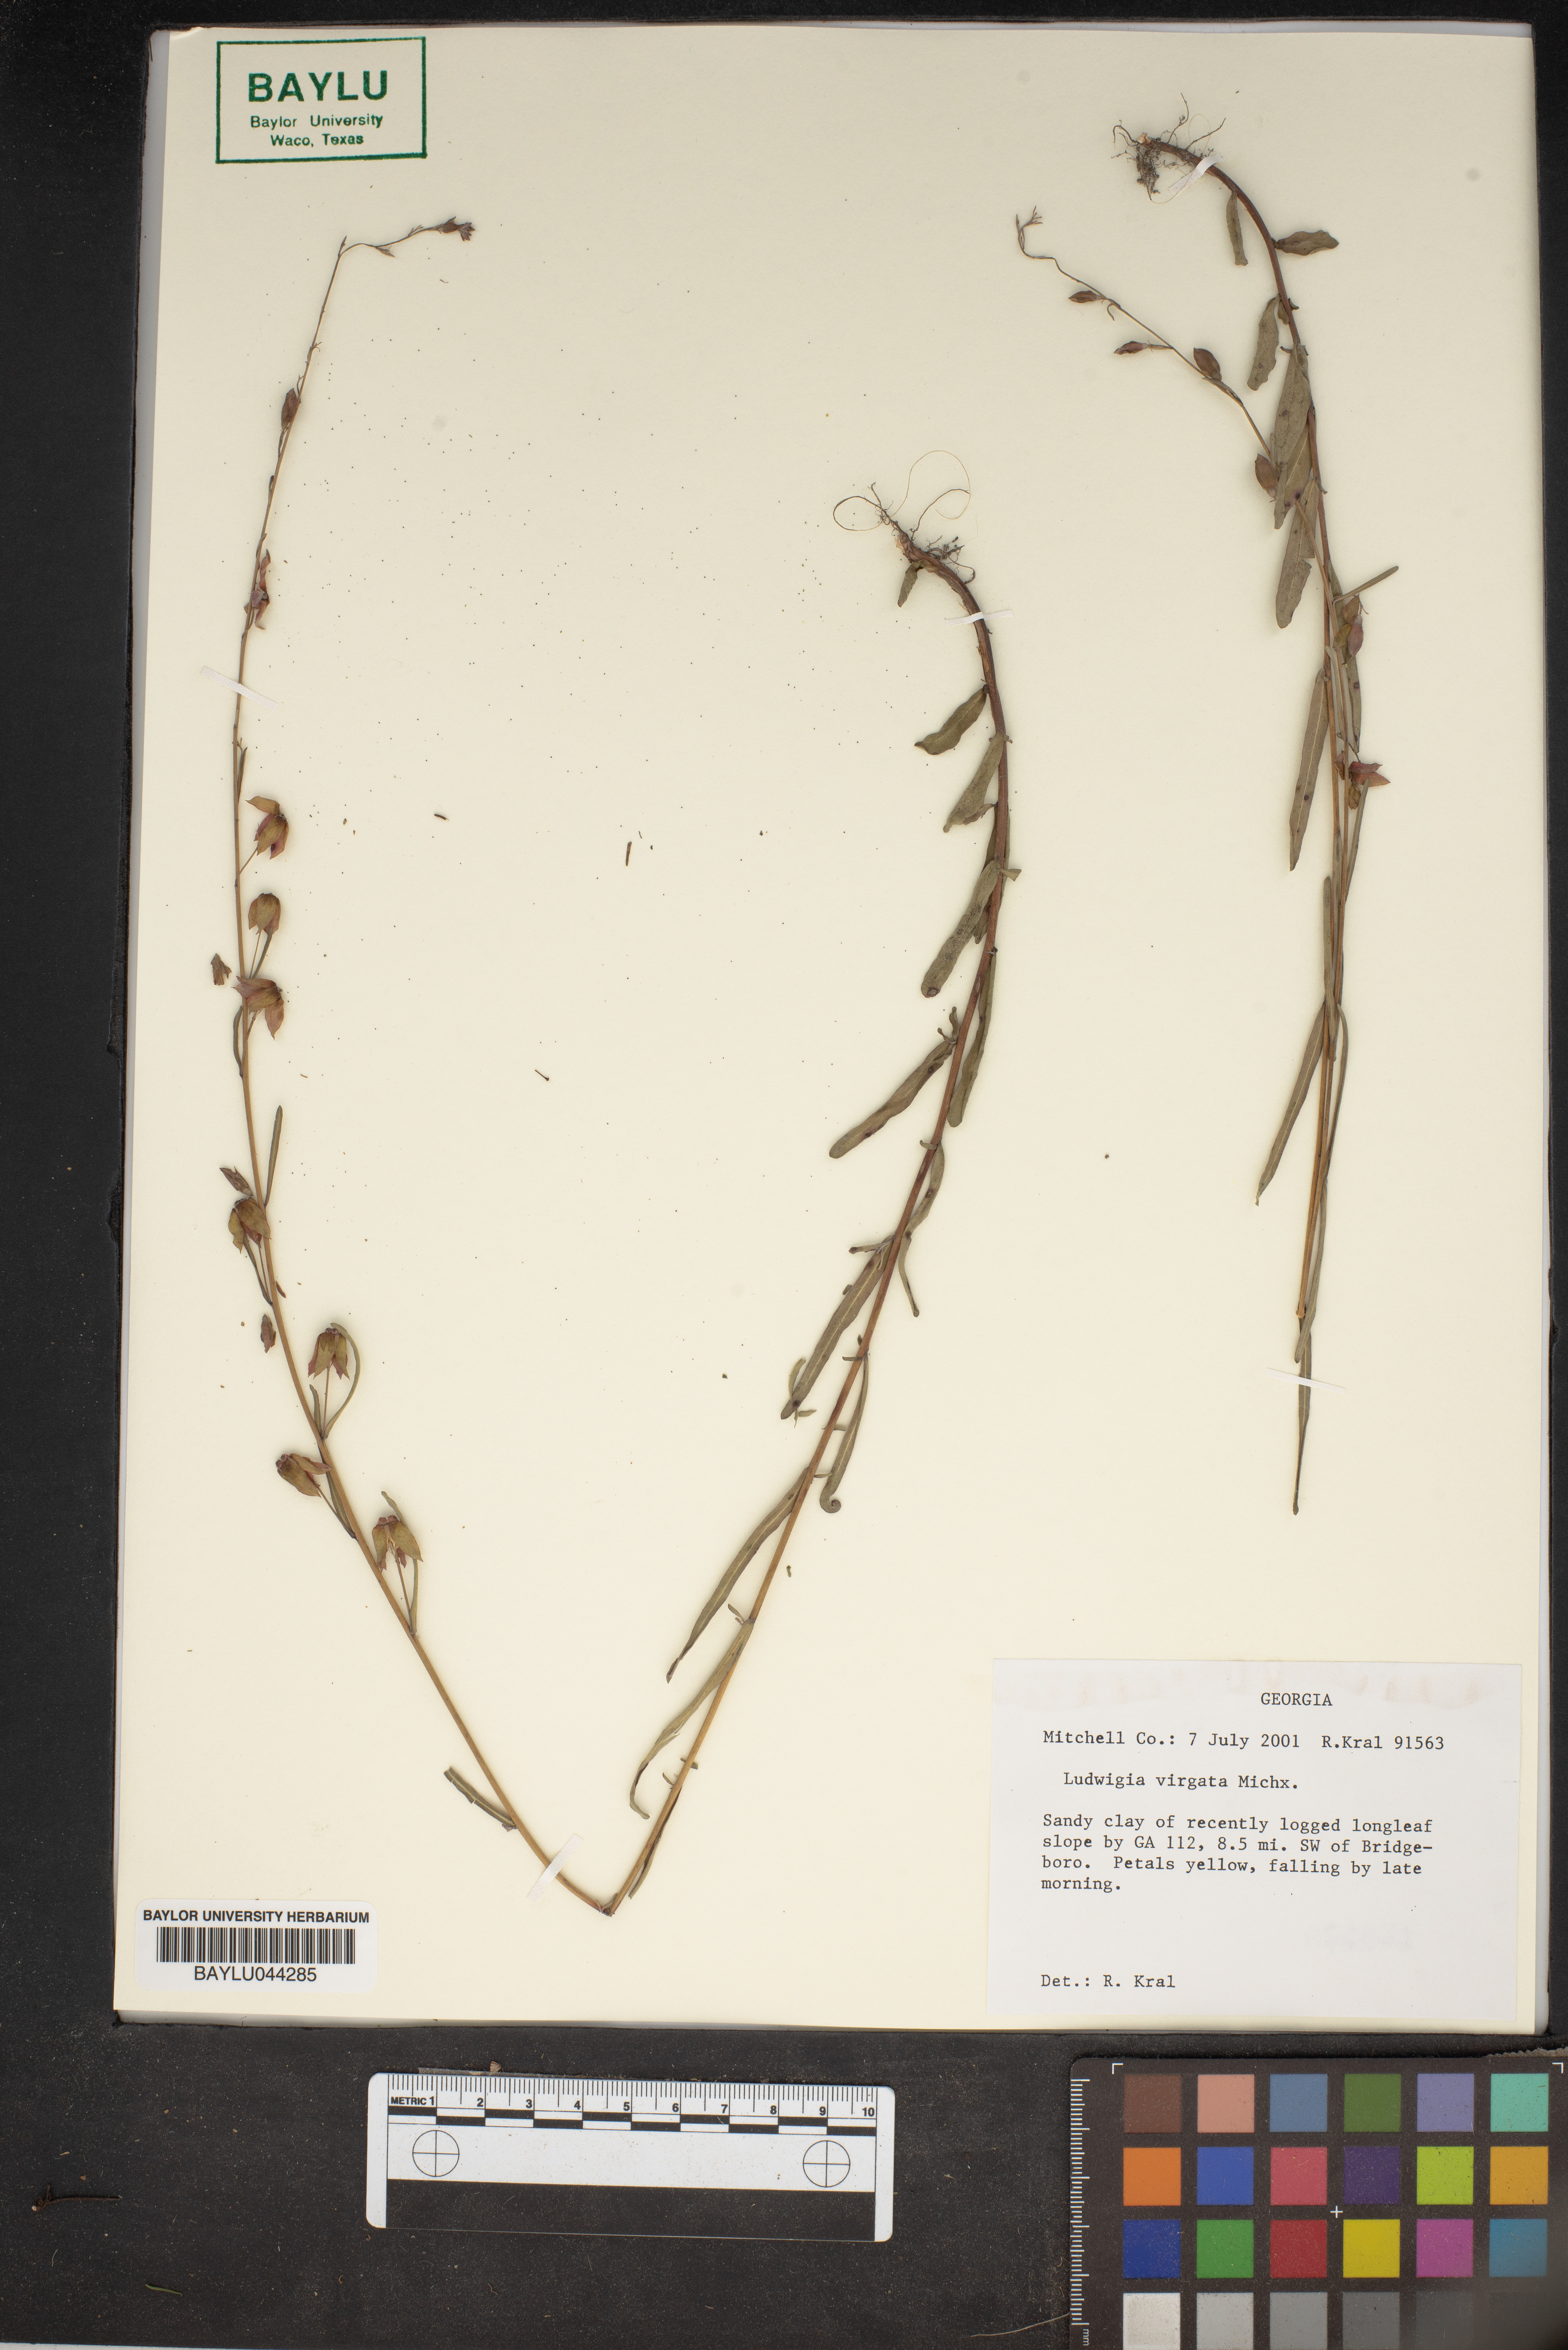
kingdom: Plantae
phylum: Tracheophyta
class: Magnoliopsida
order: Myrtales
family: Onagraceae
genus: Ludwigia
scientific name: Ludwigia virgata
